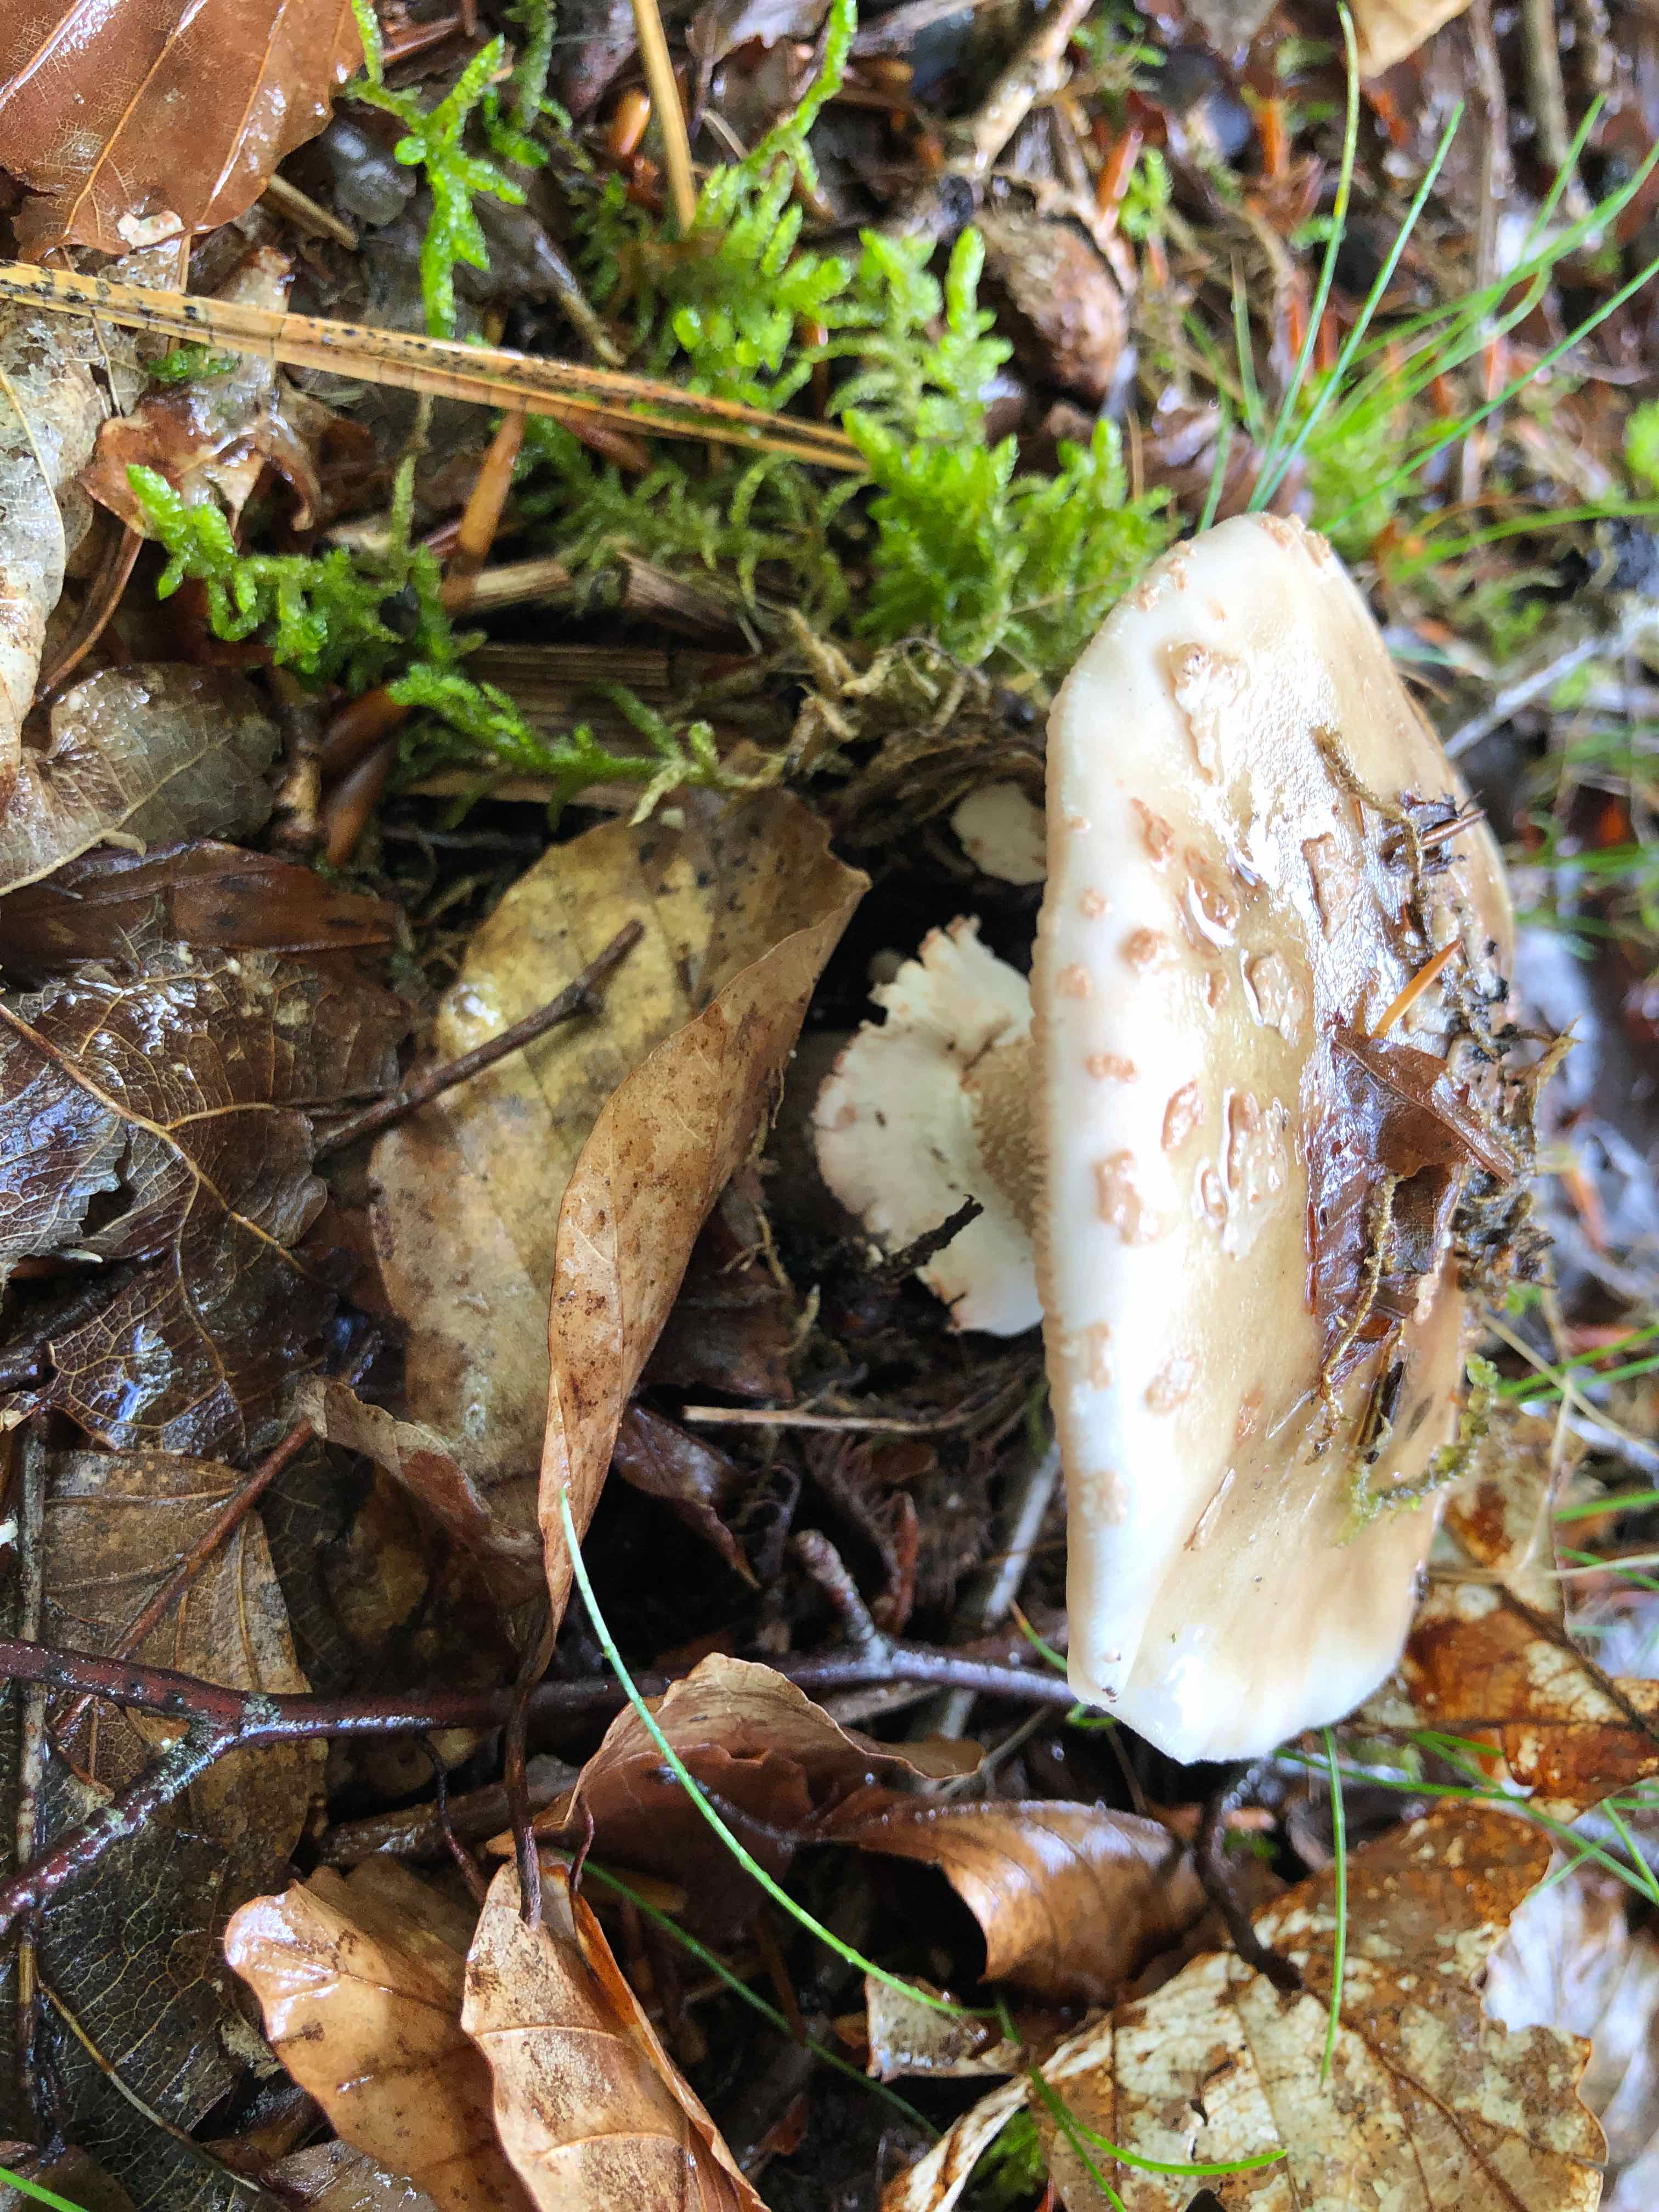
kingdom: Fungi
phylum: Basidiomycota
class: Agaricomycetes
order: Agaricales
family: Amanitaceae
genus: Amanita
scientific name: Amanita rubescens
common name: rødmende fluesvamp
